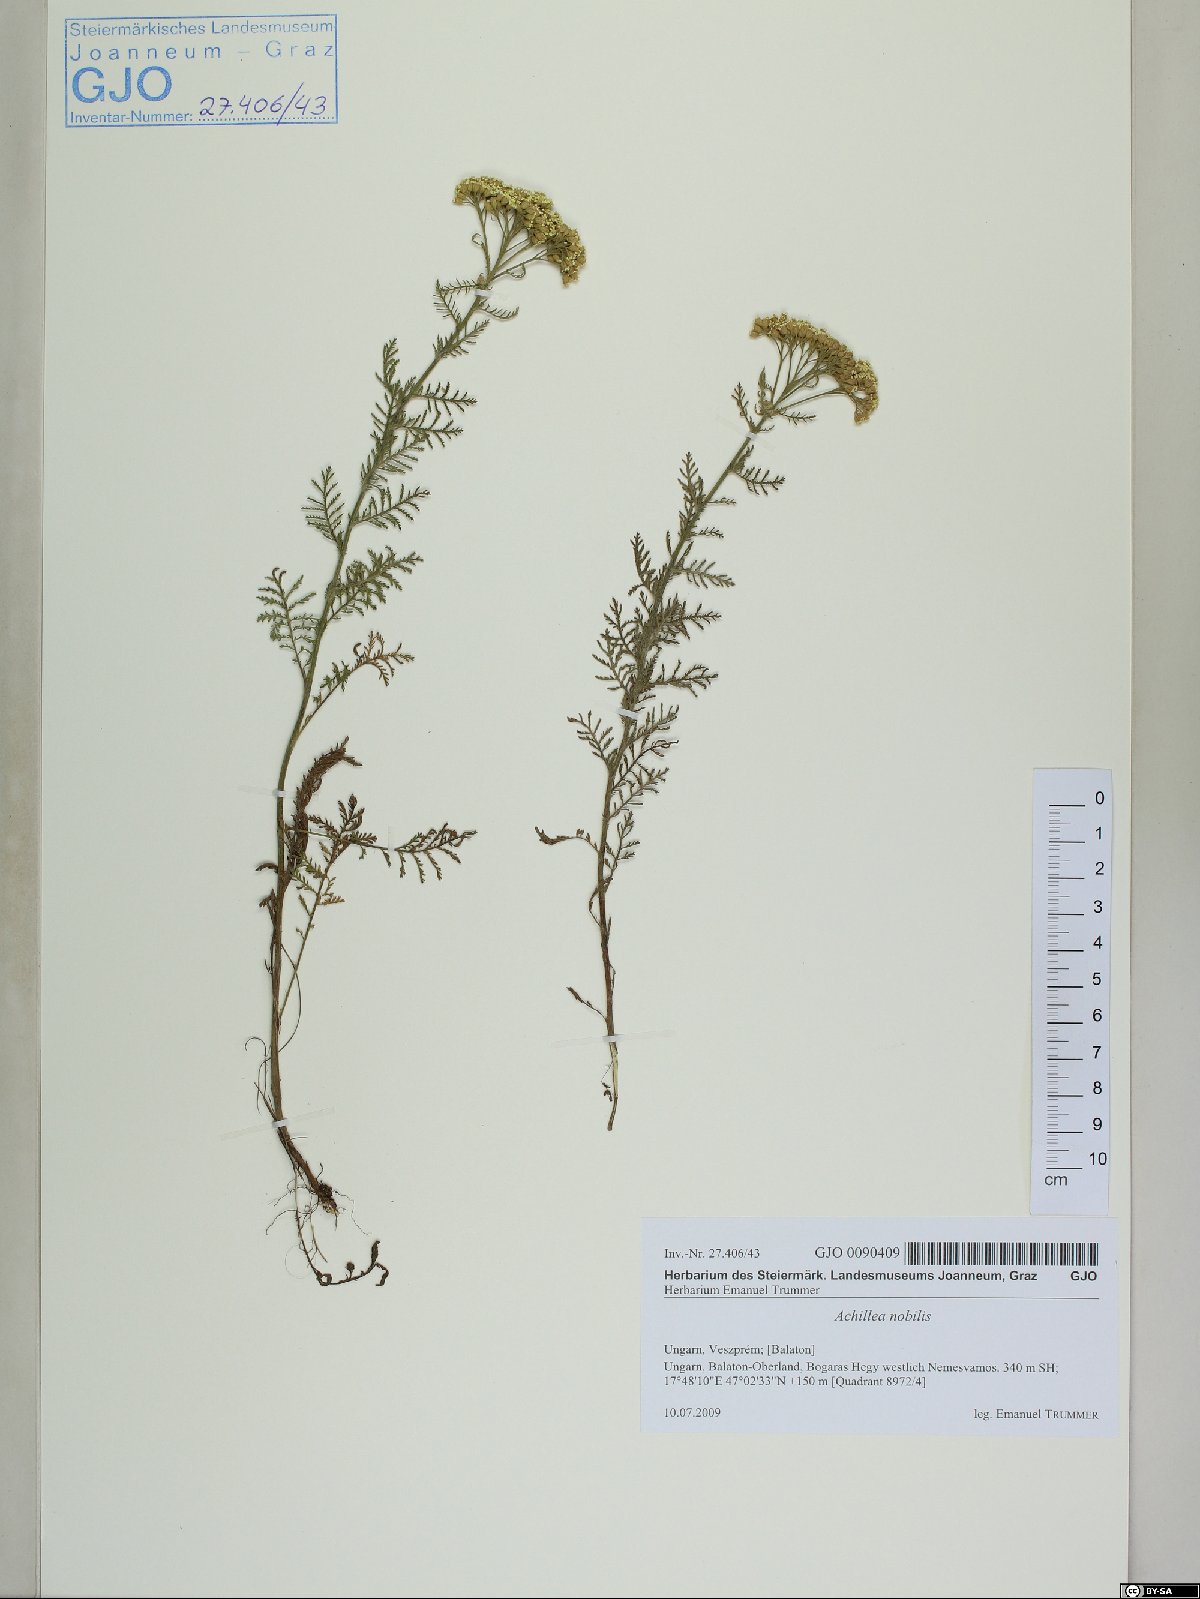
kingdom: Plantae
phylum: Tracheophyta
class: Magnoliopsida
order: Asterales
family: Asteraceae
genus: Achillea
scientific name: Achillea nobilis
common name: Noble yarrow
